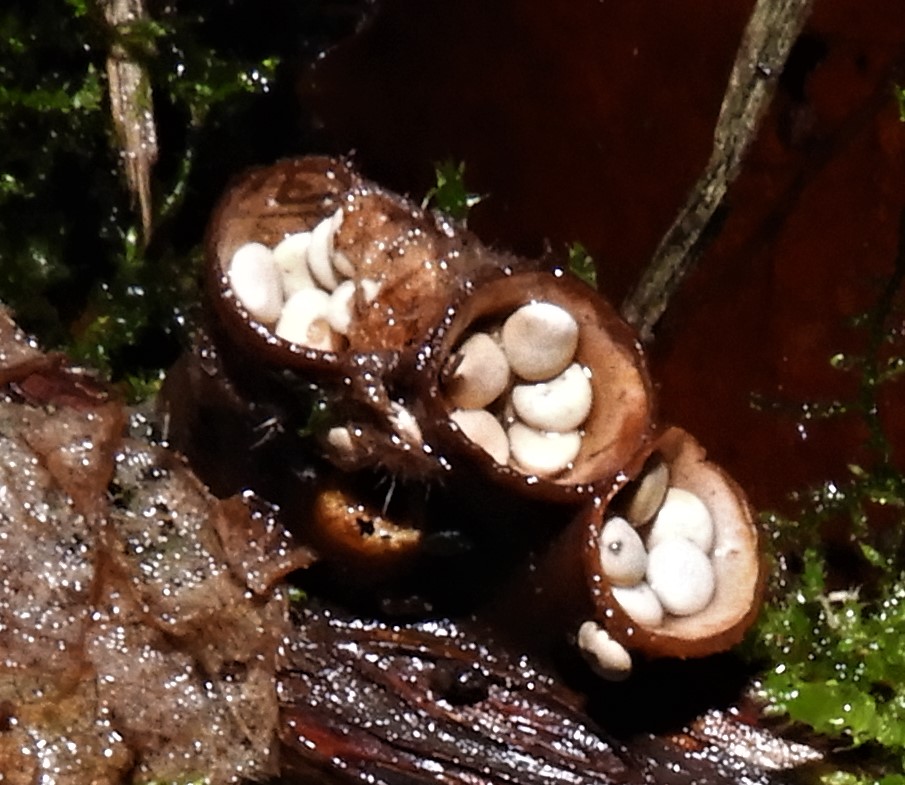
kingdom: Fungi
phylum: Basidiomycota
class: Agaricomycetes
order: Agaricales
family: Nidulariaceae
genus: Crucibulum
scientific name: Crucibulum crucibuliforme
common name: krukkesvamp
